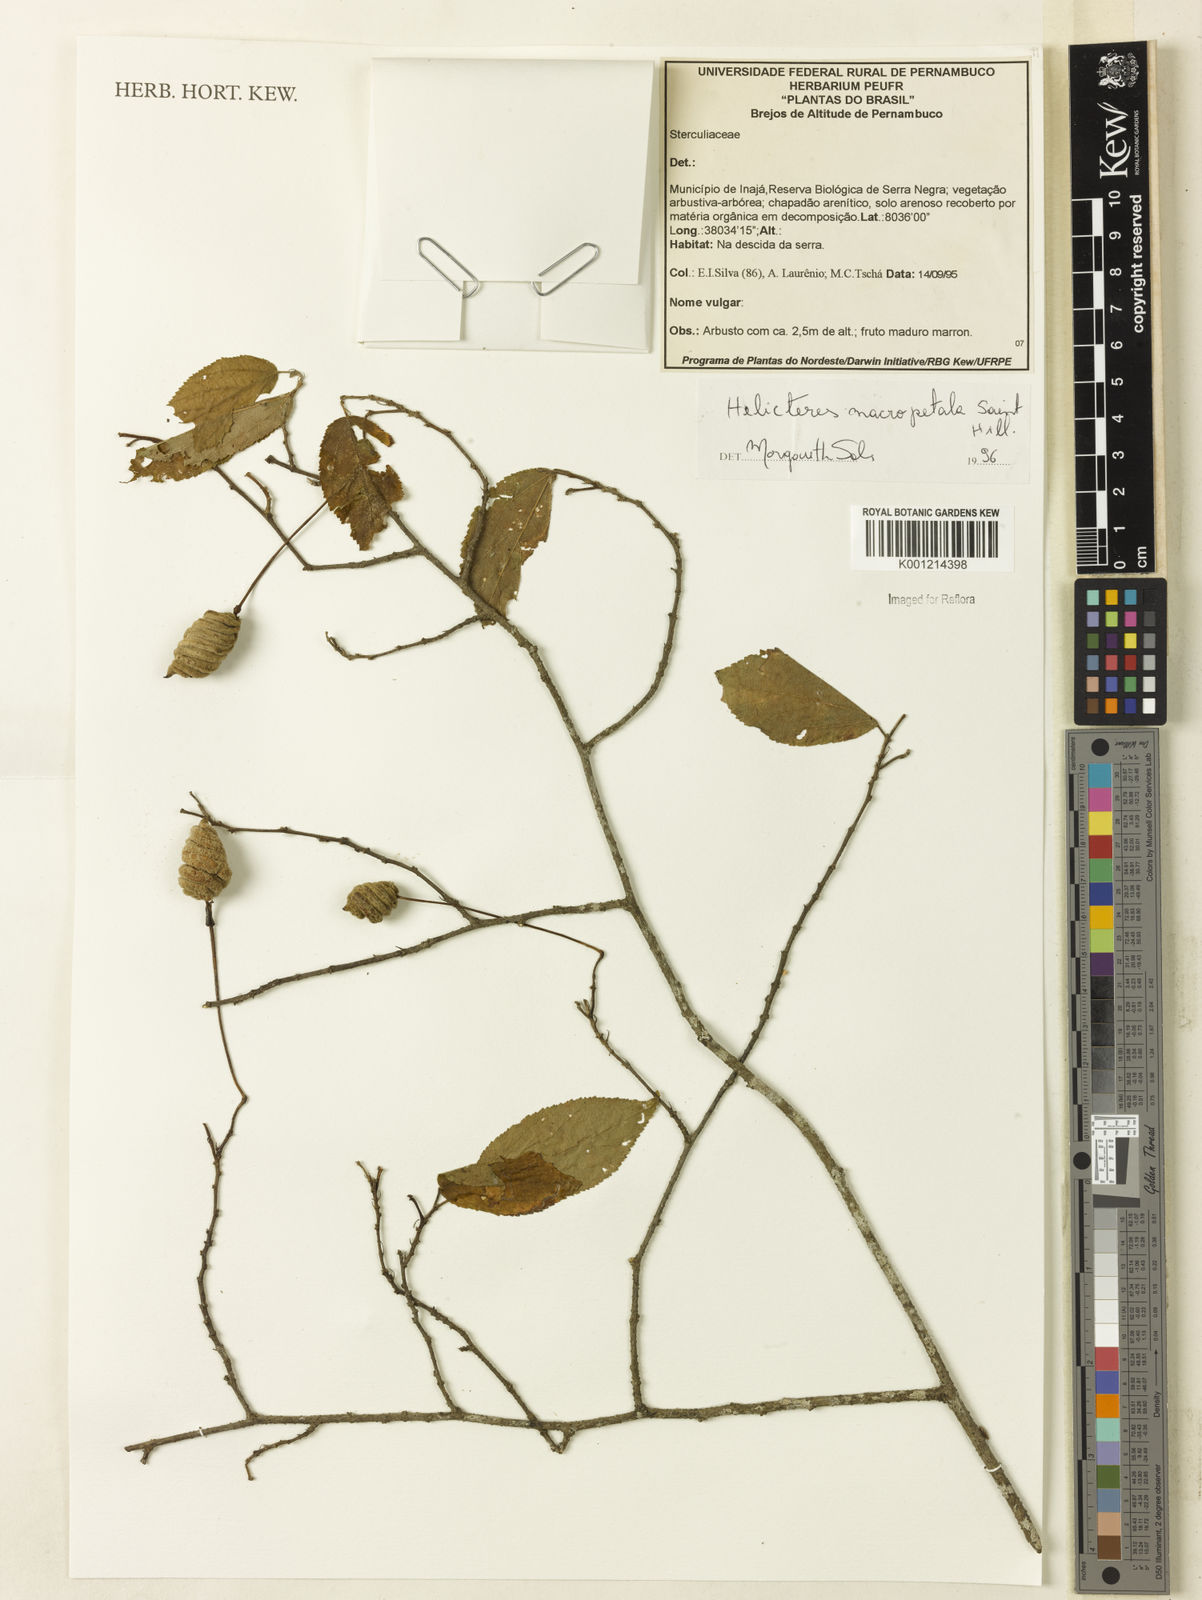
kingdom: Plantae
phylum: Tracheophyta
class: Magnoliopsida
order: Malvales
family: Malvaceae
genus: Helicteres
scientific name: Helicteres
